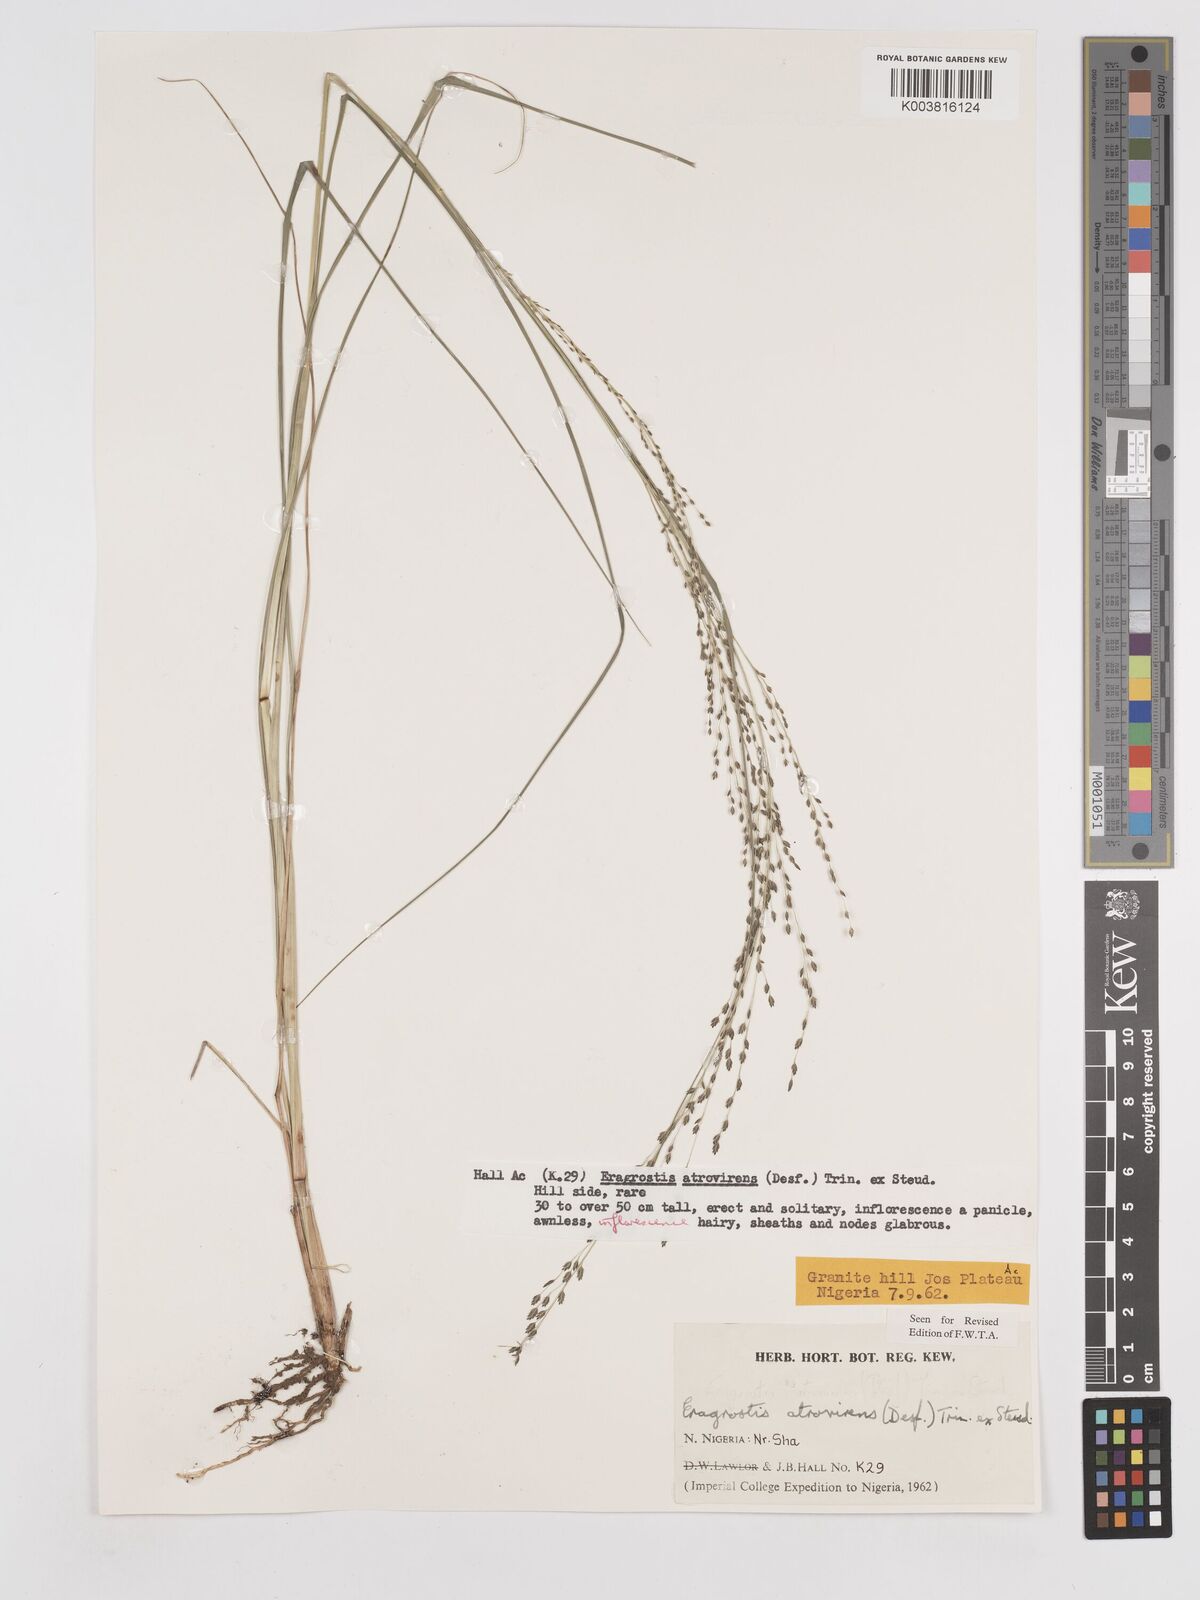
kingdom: Plantae
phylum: Tracheophyta
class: Liliopsida
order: Poales
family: Poaceae
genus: Eragrostis
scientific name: Eragrostis atrovirens
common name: Thalia lovegrass
